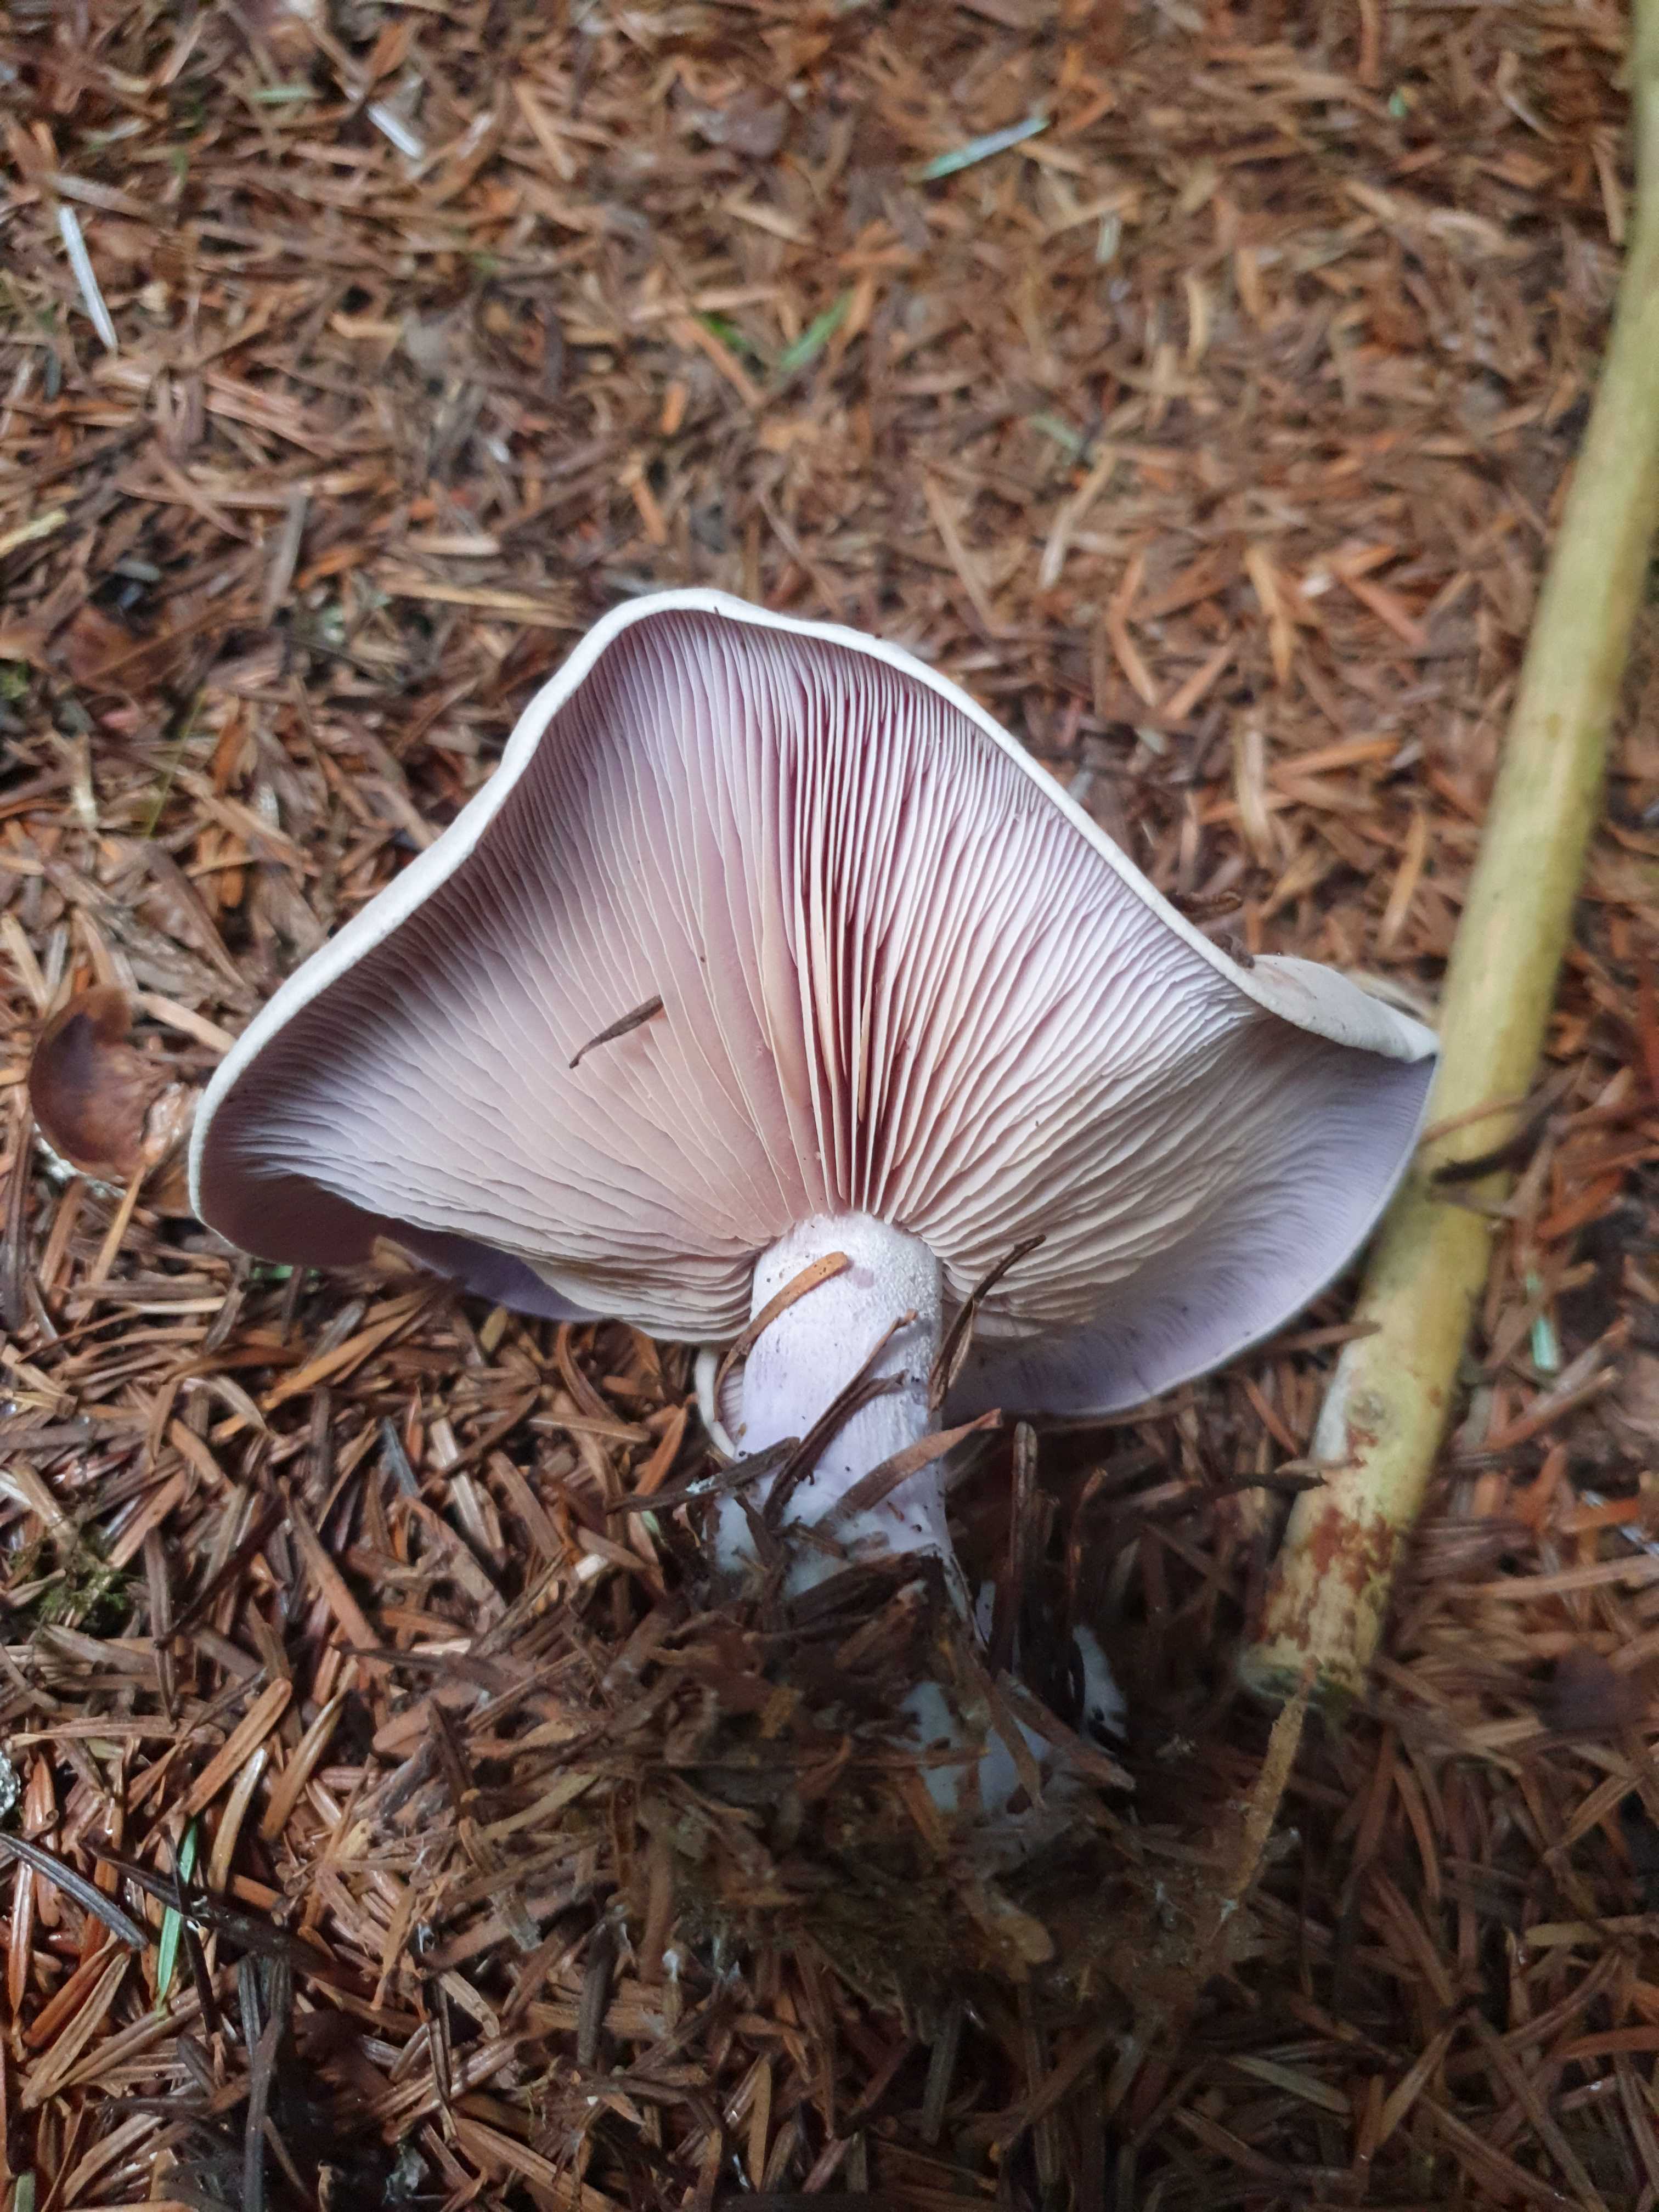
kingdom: Fungi
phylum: Basidiomycota
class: Agaricomycetes
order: Agaricales
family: Tricholomataceae
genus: Lepista
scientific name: Lepista nuda
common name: violet hekseringshat
